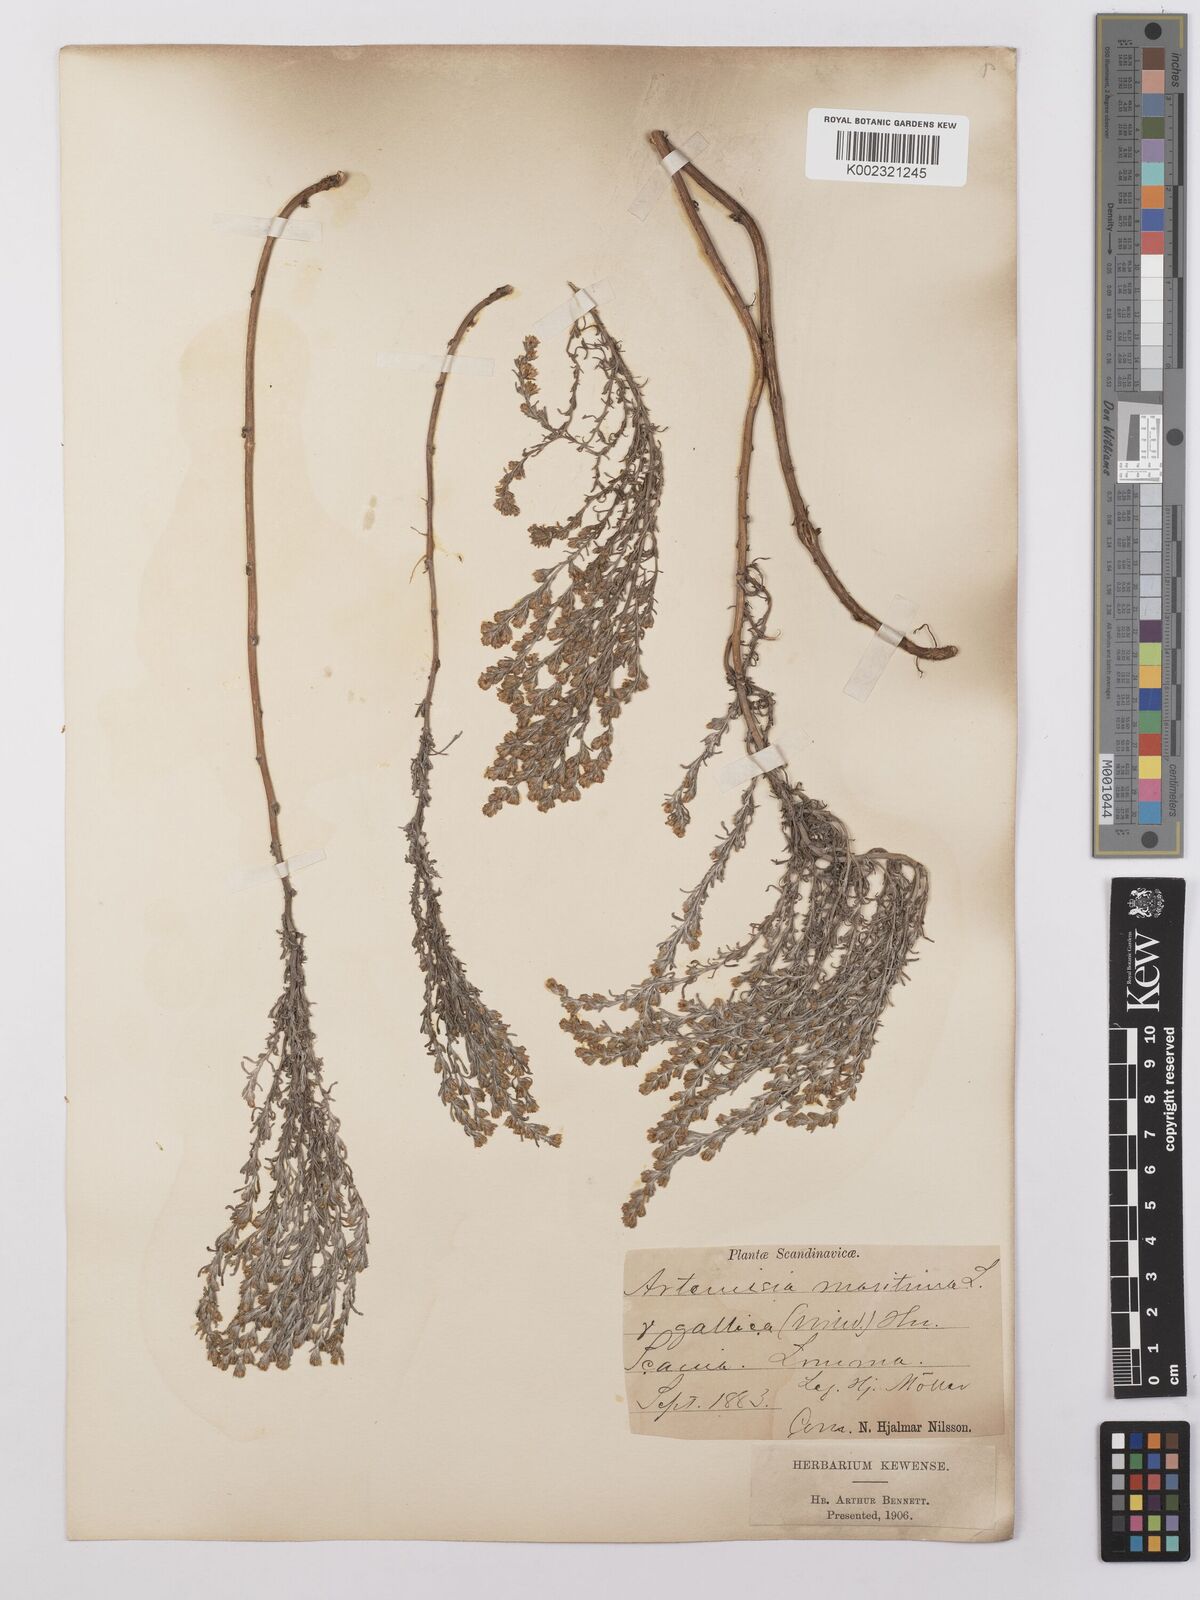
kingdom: Plantae
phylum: Tracheophyta
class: Magnoliopsida
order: Asterales
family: Asteraceae
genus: Artemisia
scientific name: Artemisia maritima
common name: Wormseed
